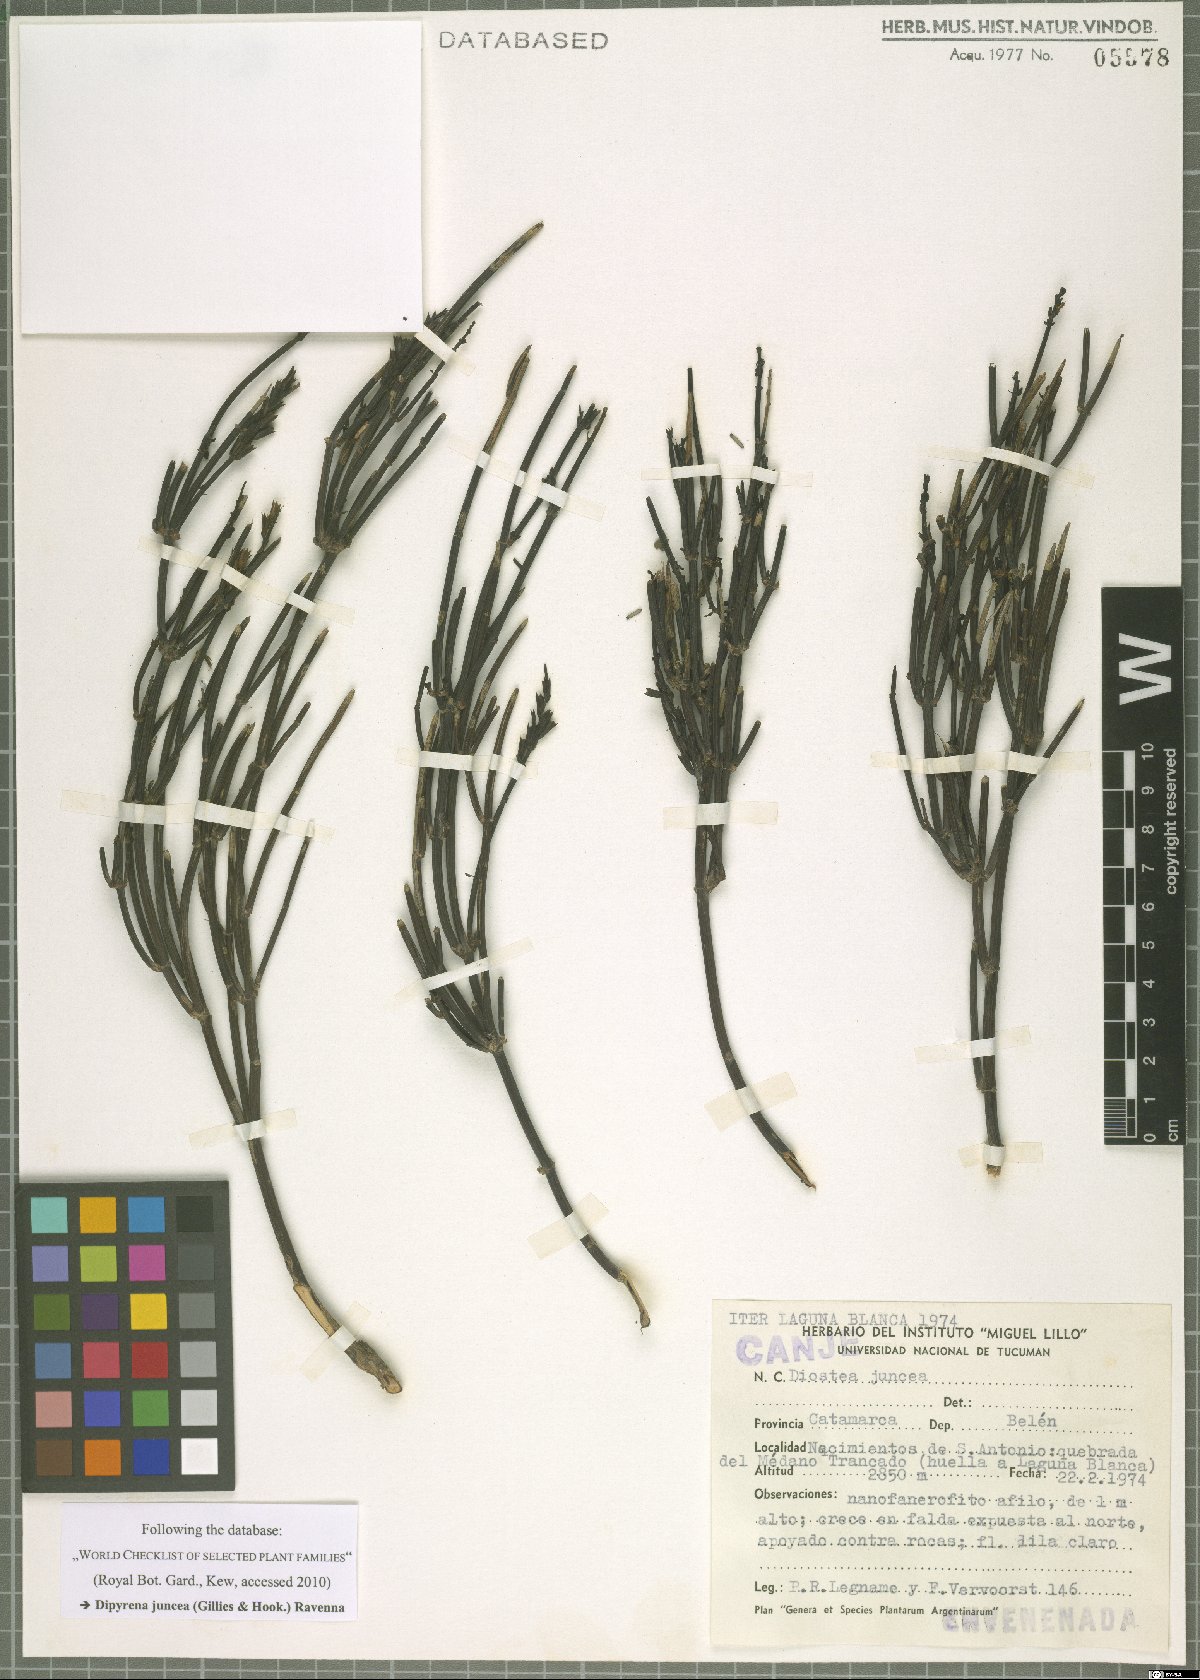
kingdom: Plantae
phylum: Tracheophyta
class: Magnoliopsida
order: Lamiales
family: Verbenaceae
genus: Diostea
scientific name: Diostea juncea
